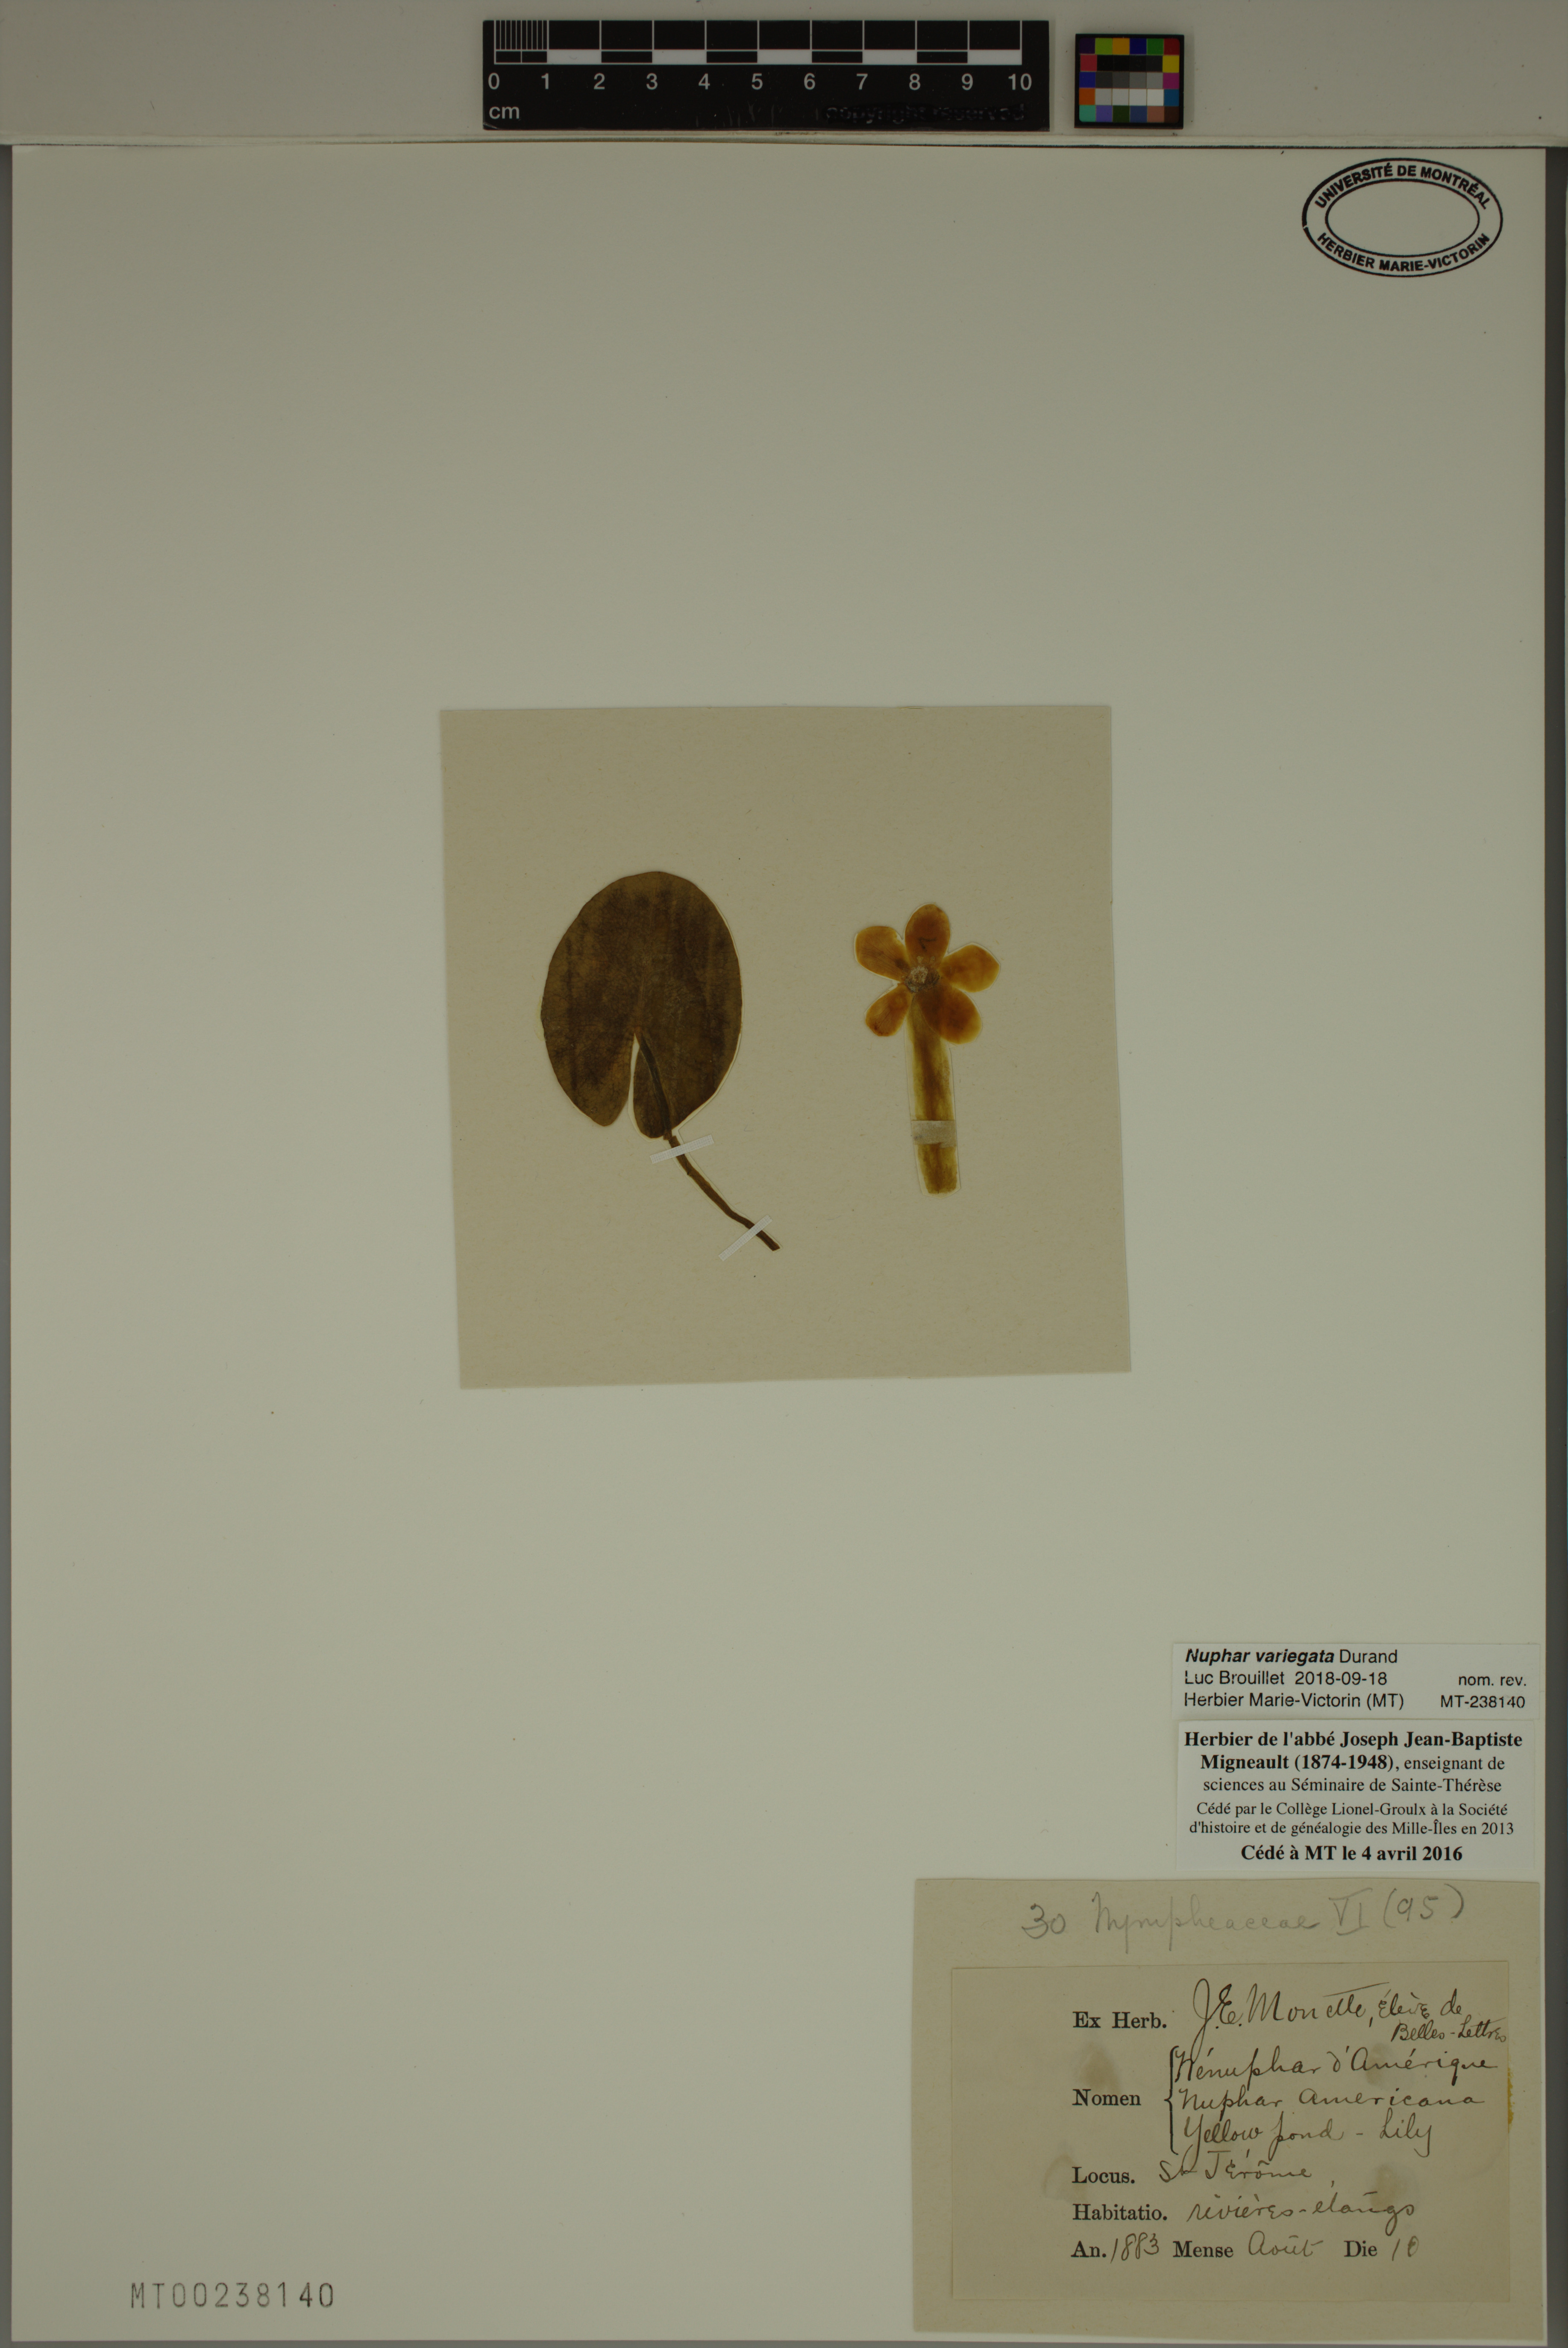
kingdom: Plantae
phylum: Tracheophyta
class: Magnoliopsida
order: Nymphaeales
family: Nymphaeaceae
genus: Nuphar
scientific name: Nuphar variegata
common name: Beaver-root
